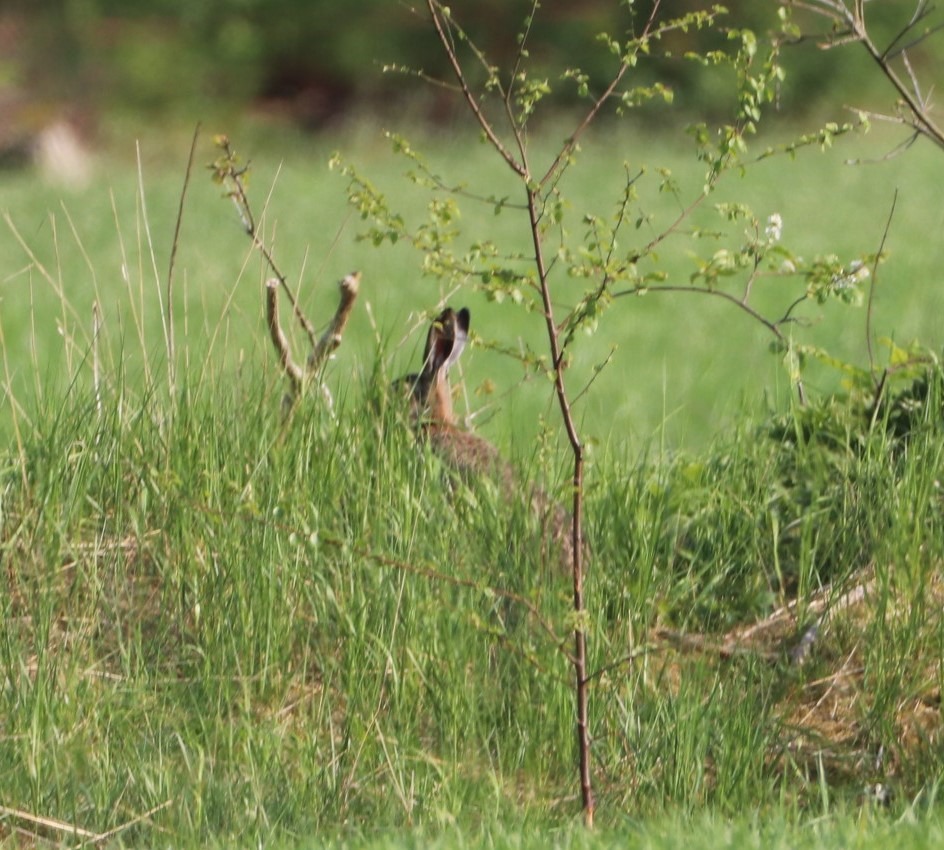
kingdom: Animalia
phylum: Chordata
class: Mammalia
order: Lagomorpha
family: Leporidae
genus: Lepus
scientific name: Lepus europaeus
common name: Hare
